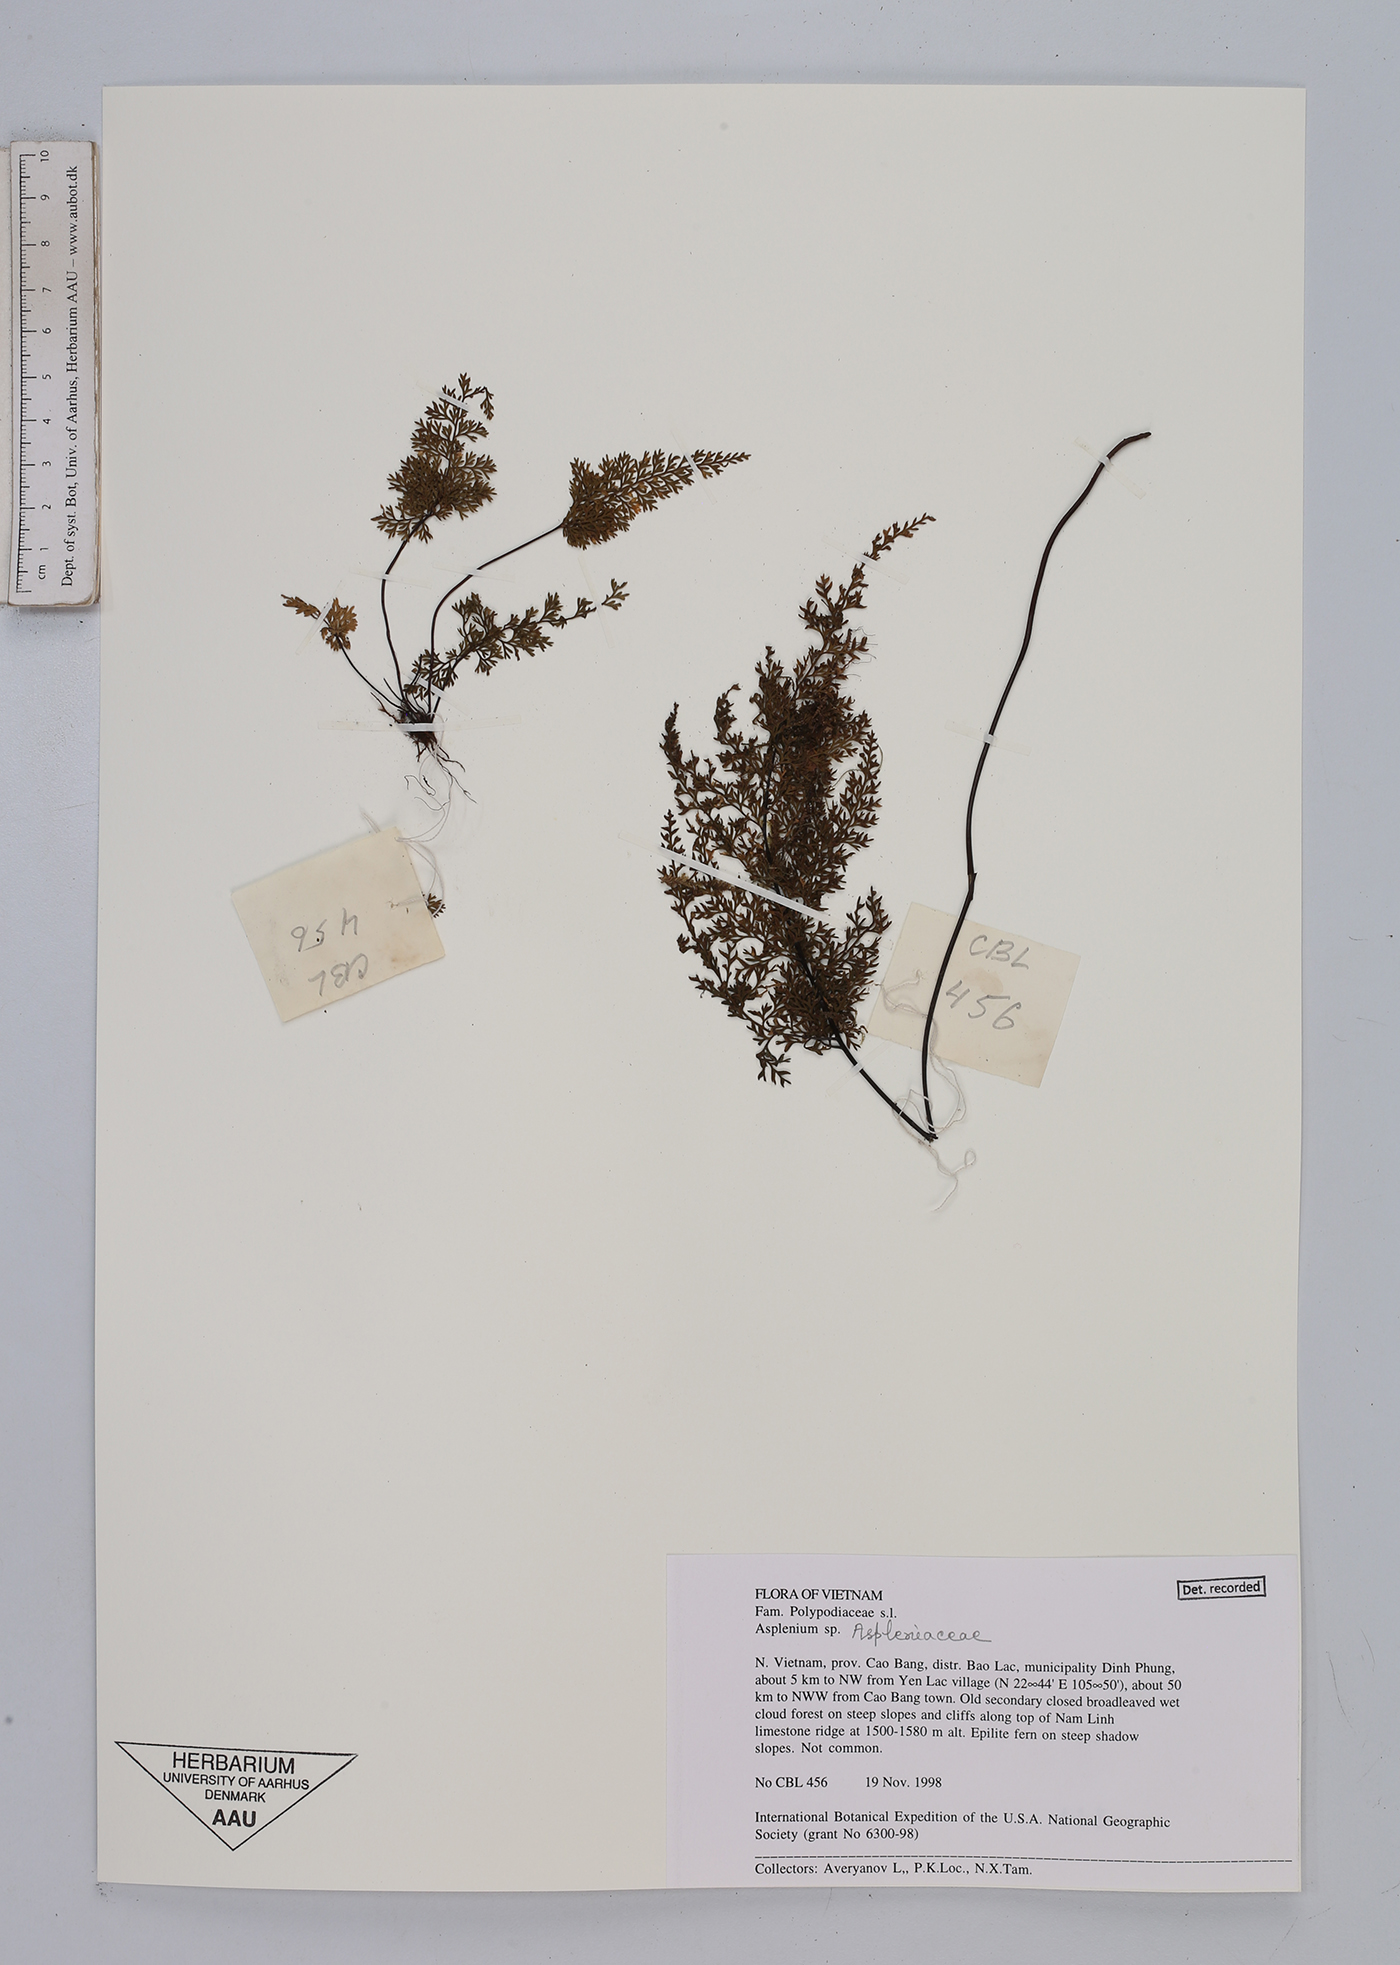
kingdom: Plantae
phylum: Tracheophyta
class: Polypodiopsida
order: Polypodiales
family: Aspleniaceae
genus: Asplenium
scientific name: Asplenium
